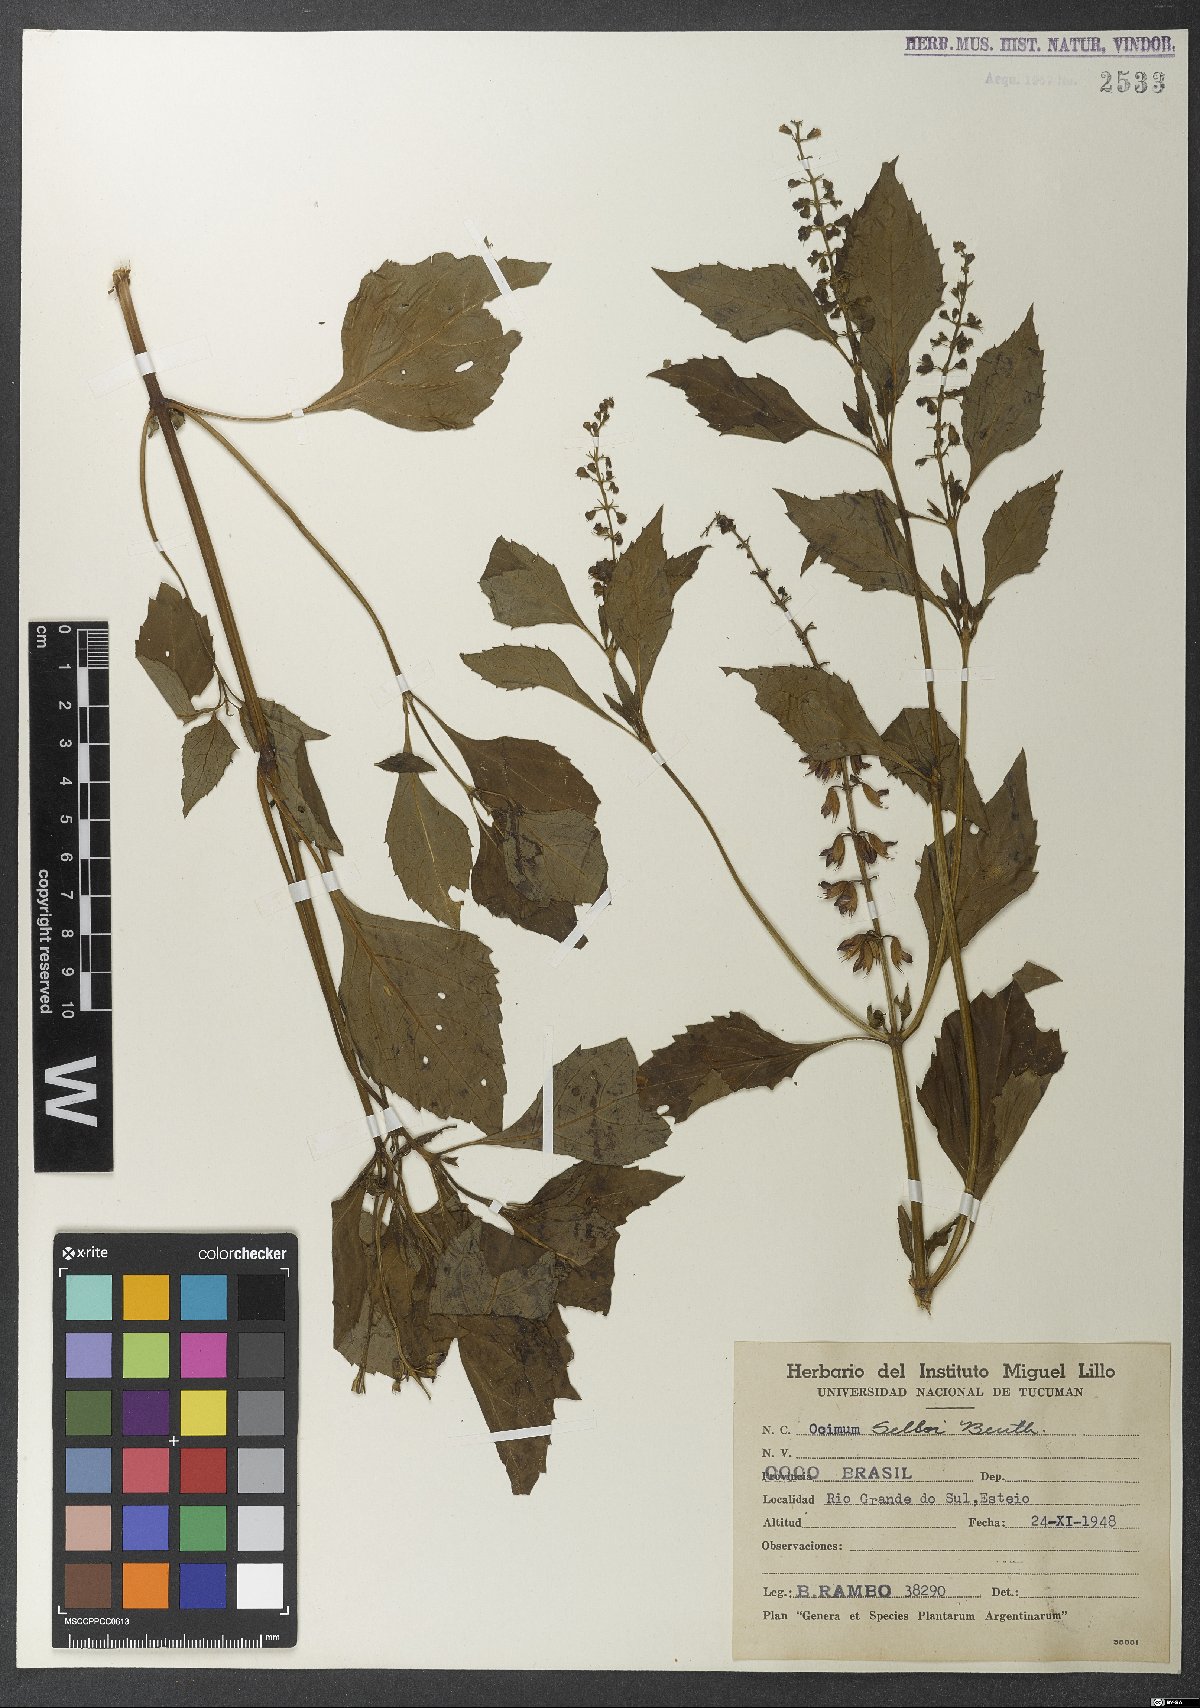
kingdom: Plantae
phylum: Tracheophyta
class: Magnoliopsida
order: Lamiales
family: Lamiaceae
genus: Ocimum
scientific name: Ocimum
